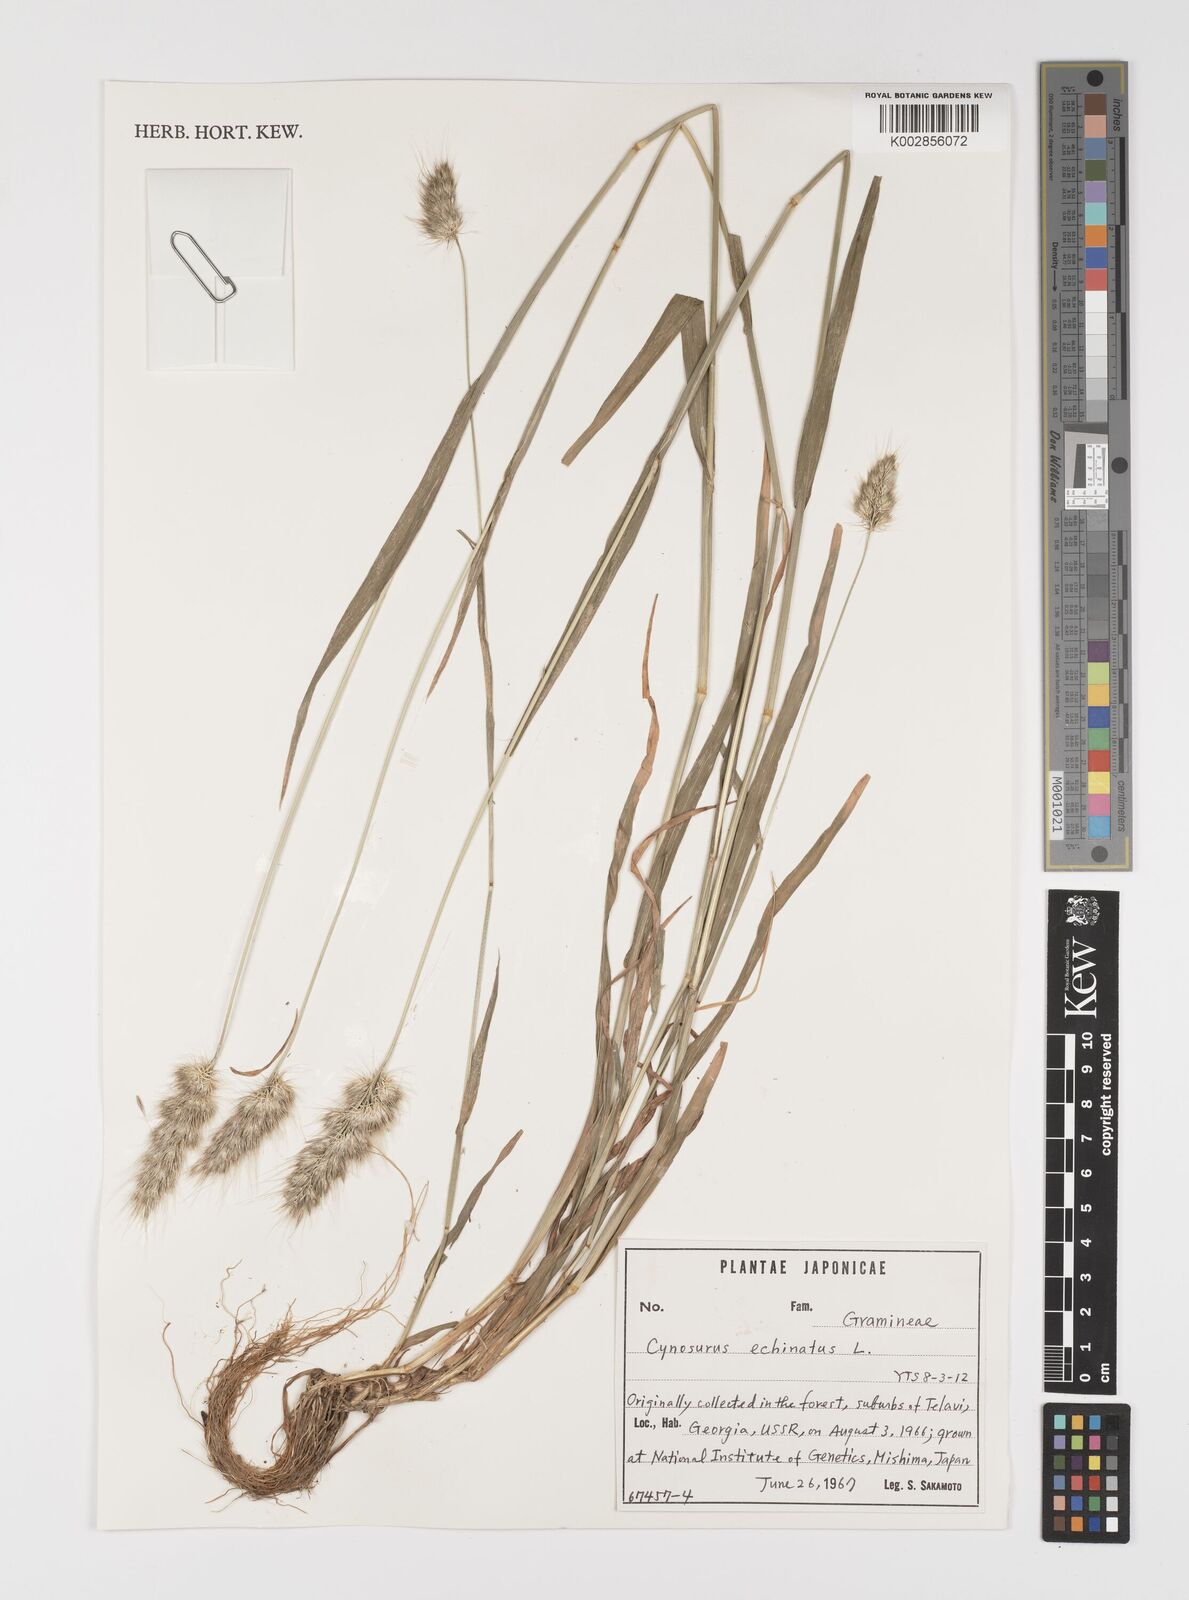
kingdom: Plantae
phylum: Tracheophyta
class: Liliopsida
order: Poales
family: Poaceae
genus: Cynosurus
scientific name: Cynosurus echinatus
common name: Rough dog's-tail
